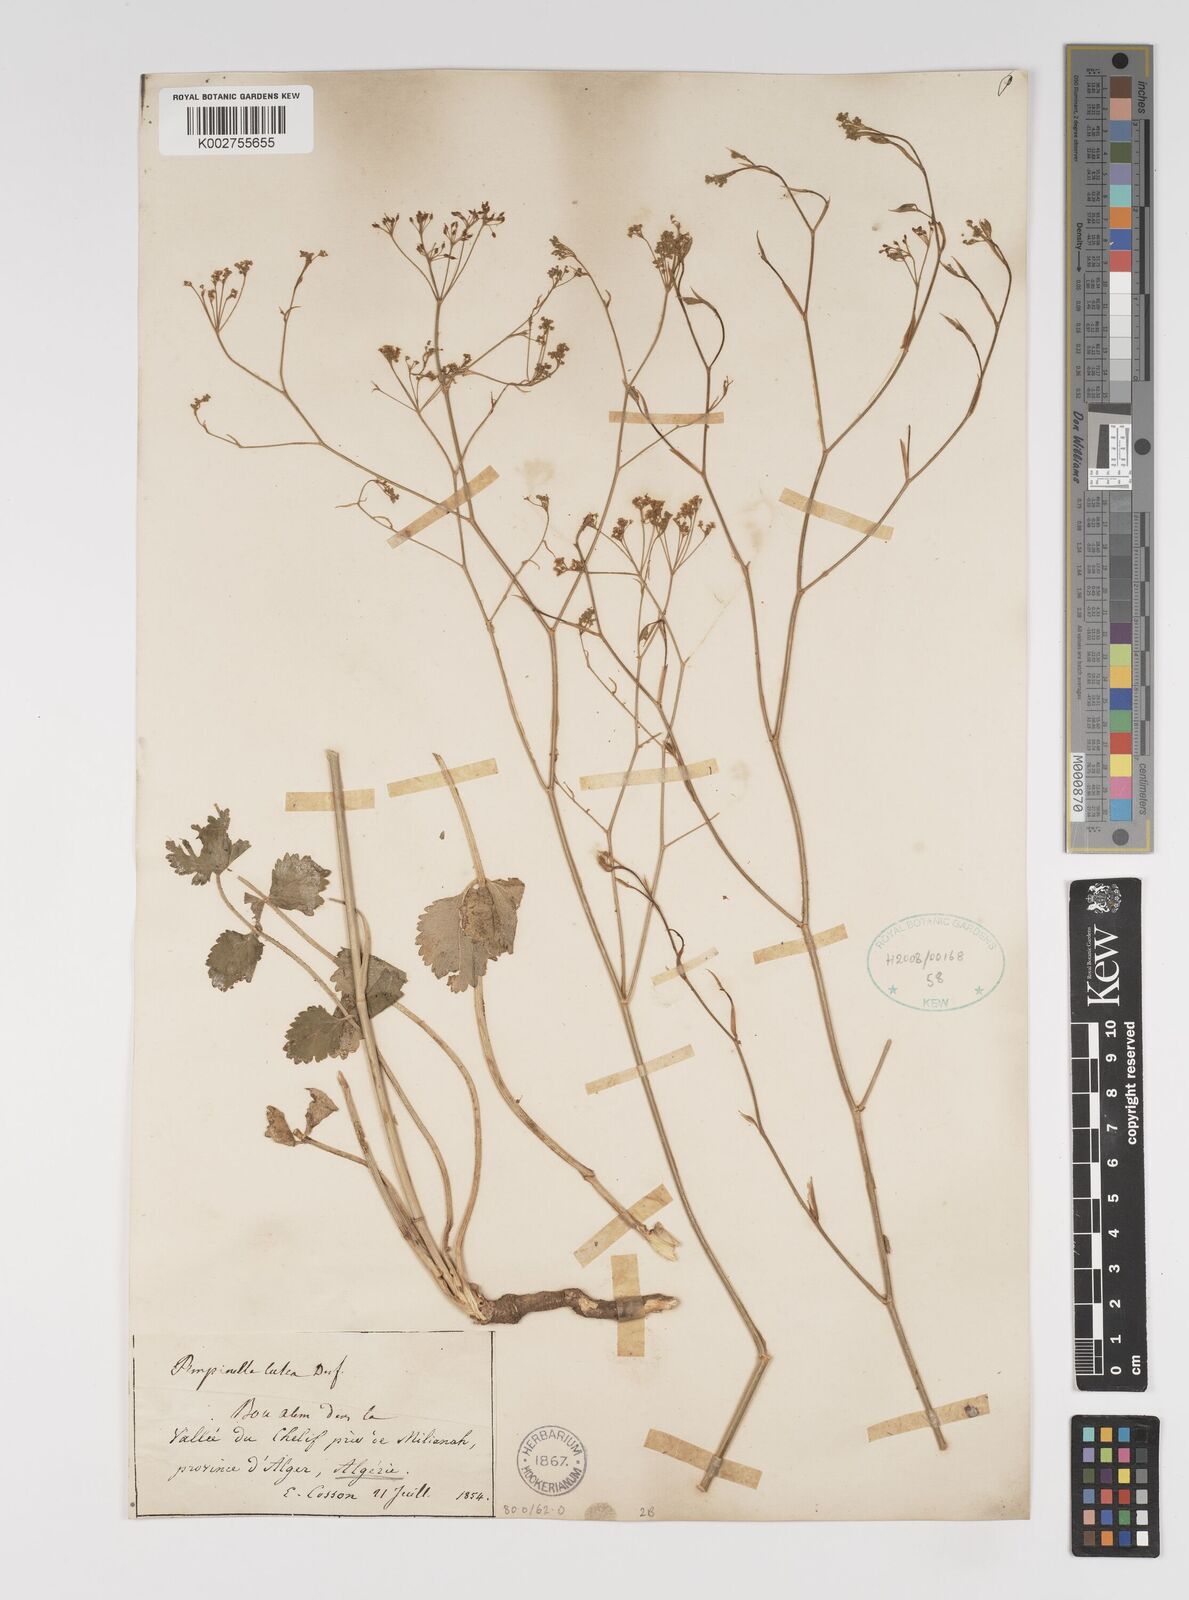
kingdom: Plantae
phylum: Tracheophyta
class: Magnoliopsida
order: Apiales
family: Apiaceae
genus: Pimpinella
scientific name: Pimpinella
